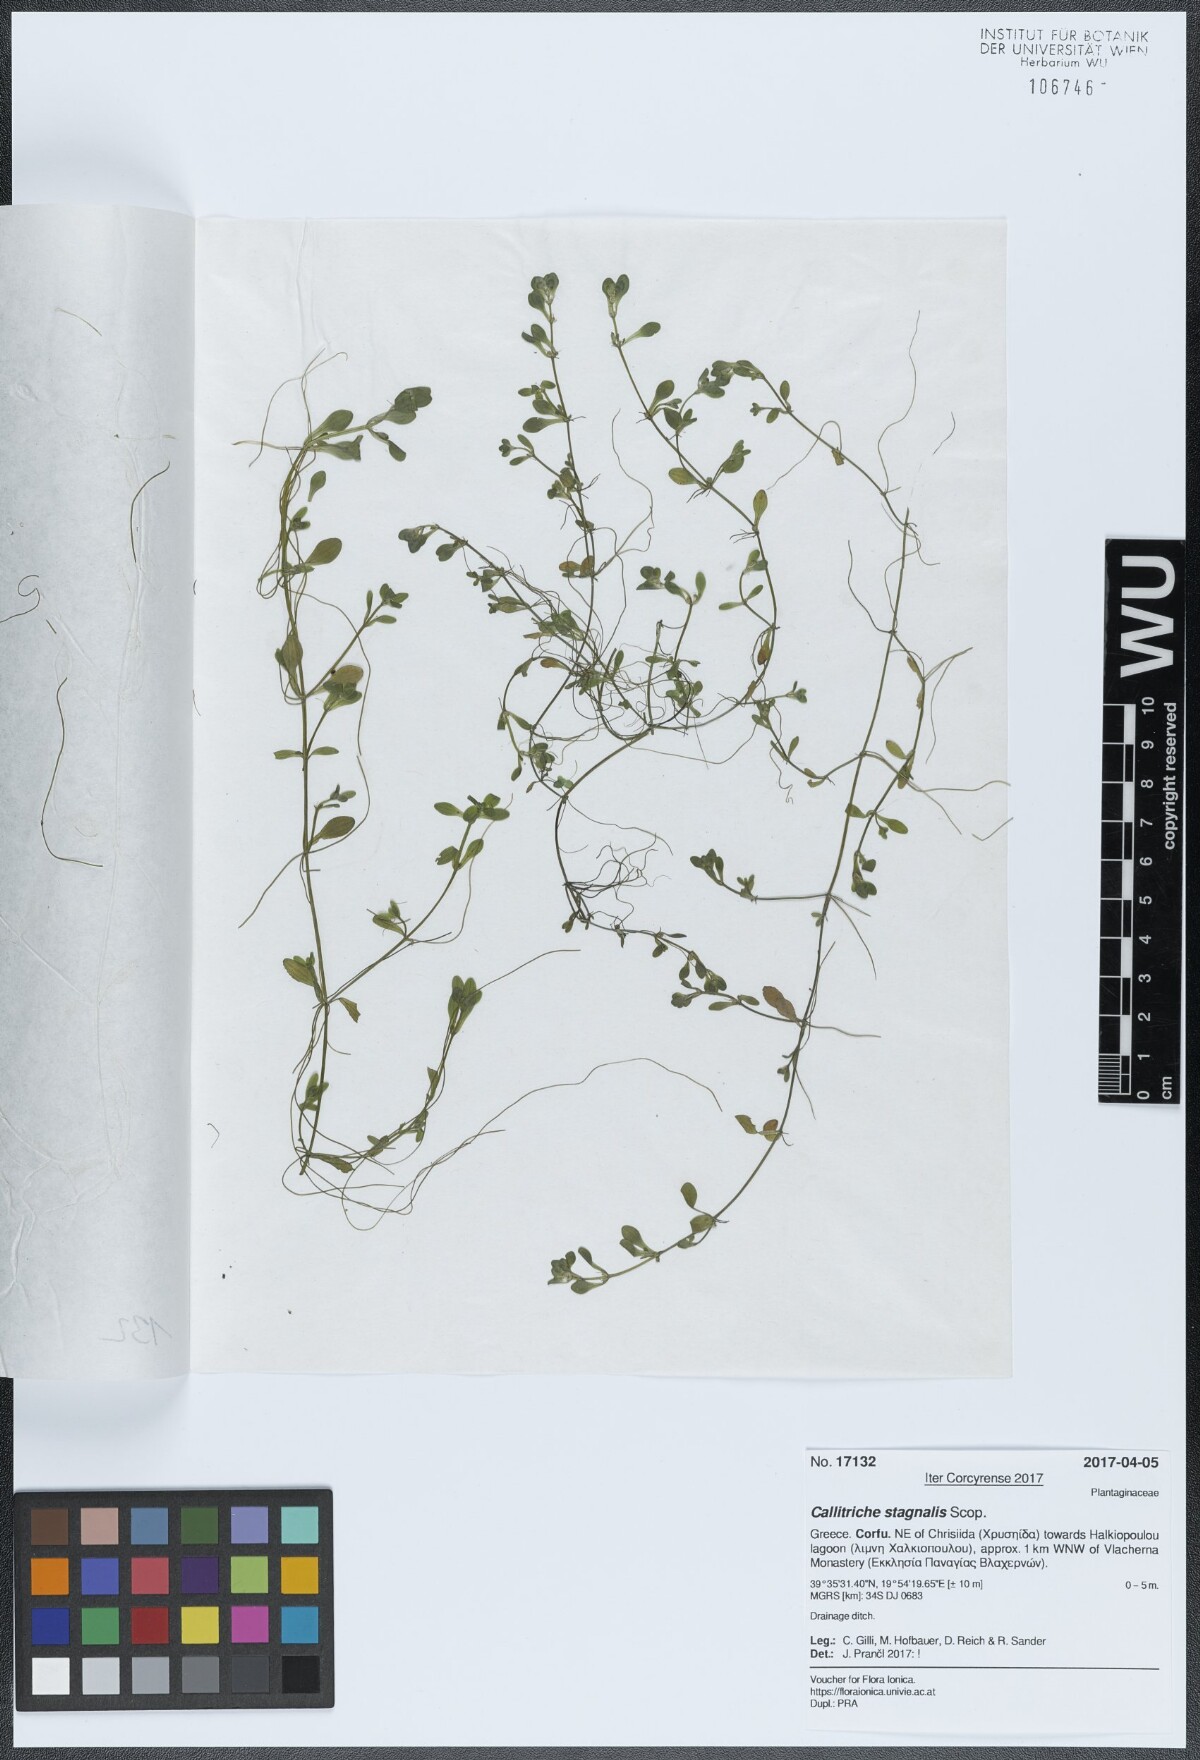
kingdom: Plantae
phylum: Tracheophyta
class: Magnoliopsida
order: Lamiales
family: Plantaginaceae
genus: Callitriche
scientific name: Callitriche stagnalis
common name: Common water-starwort
